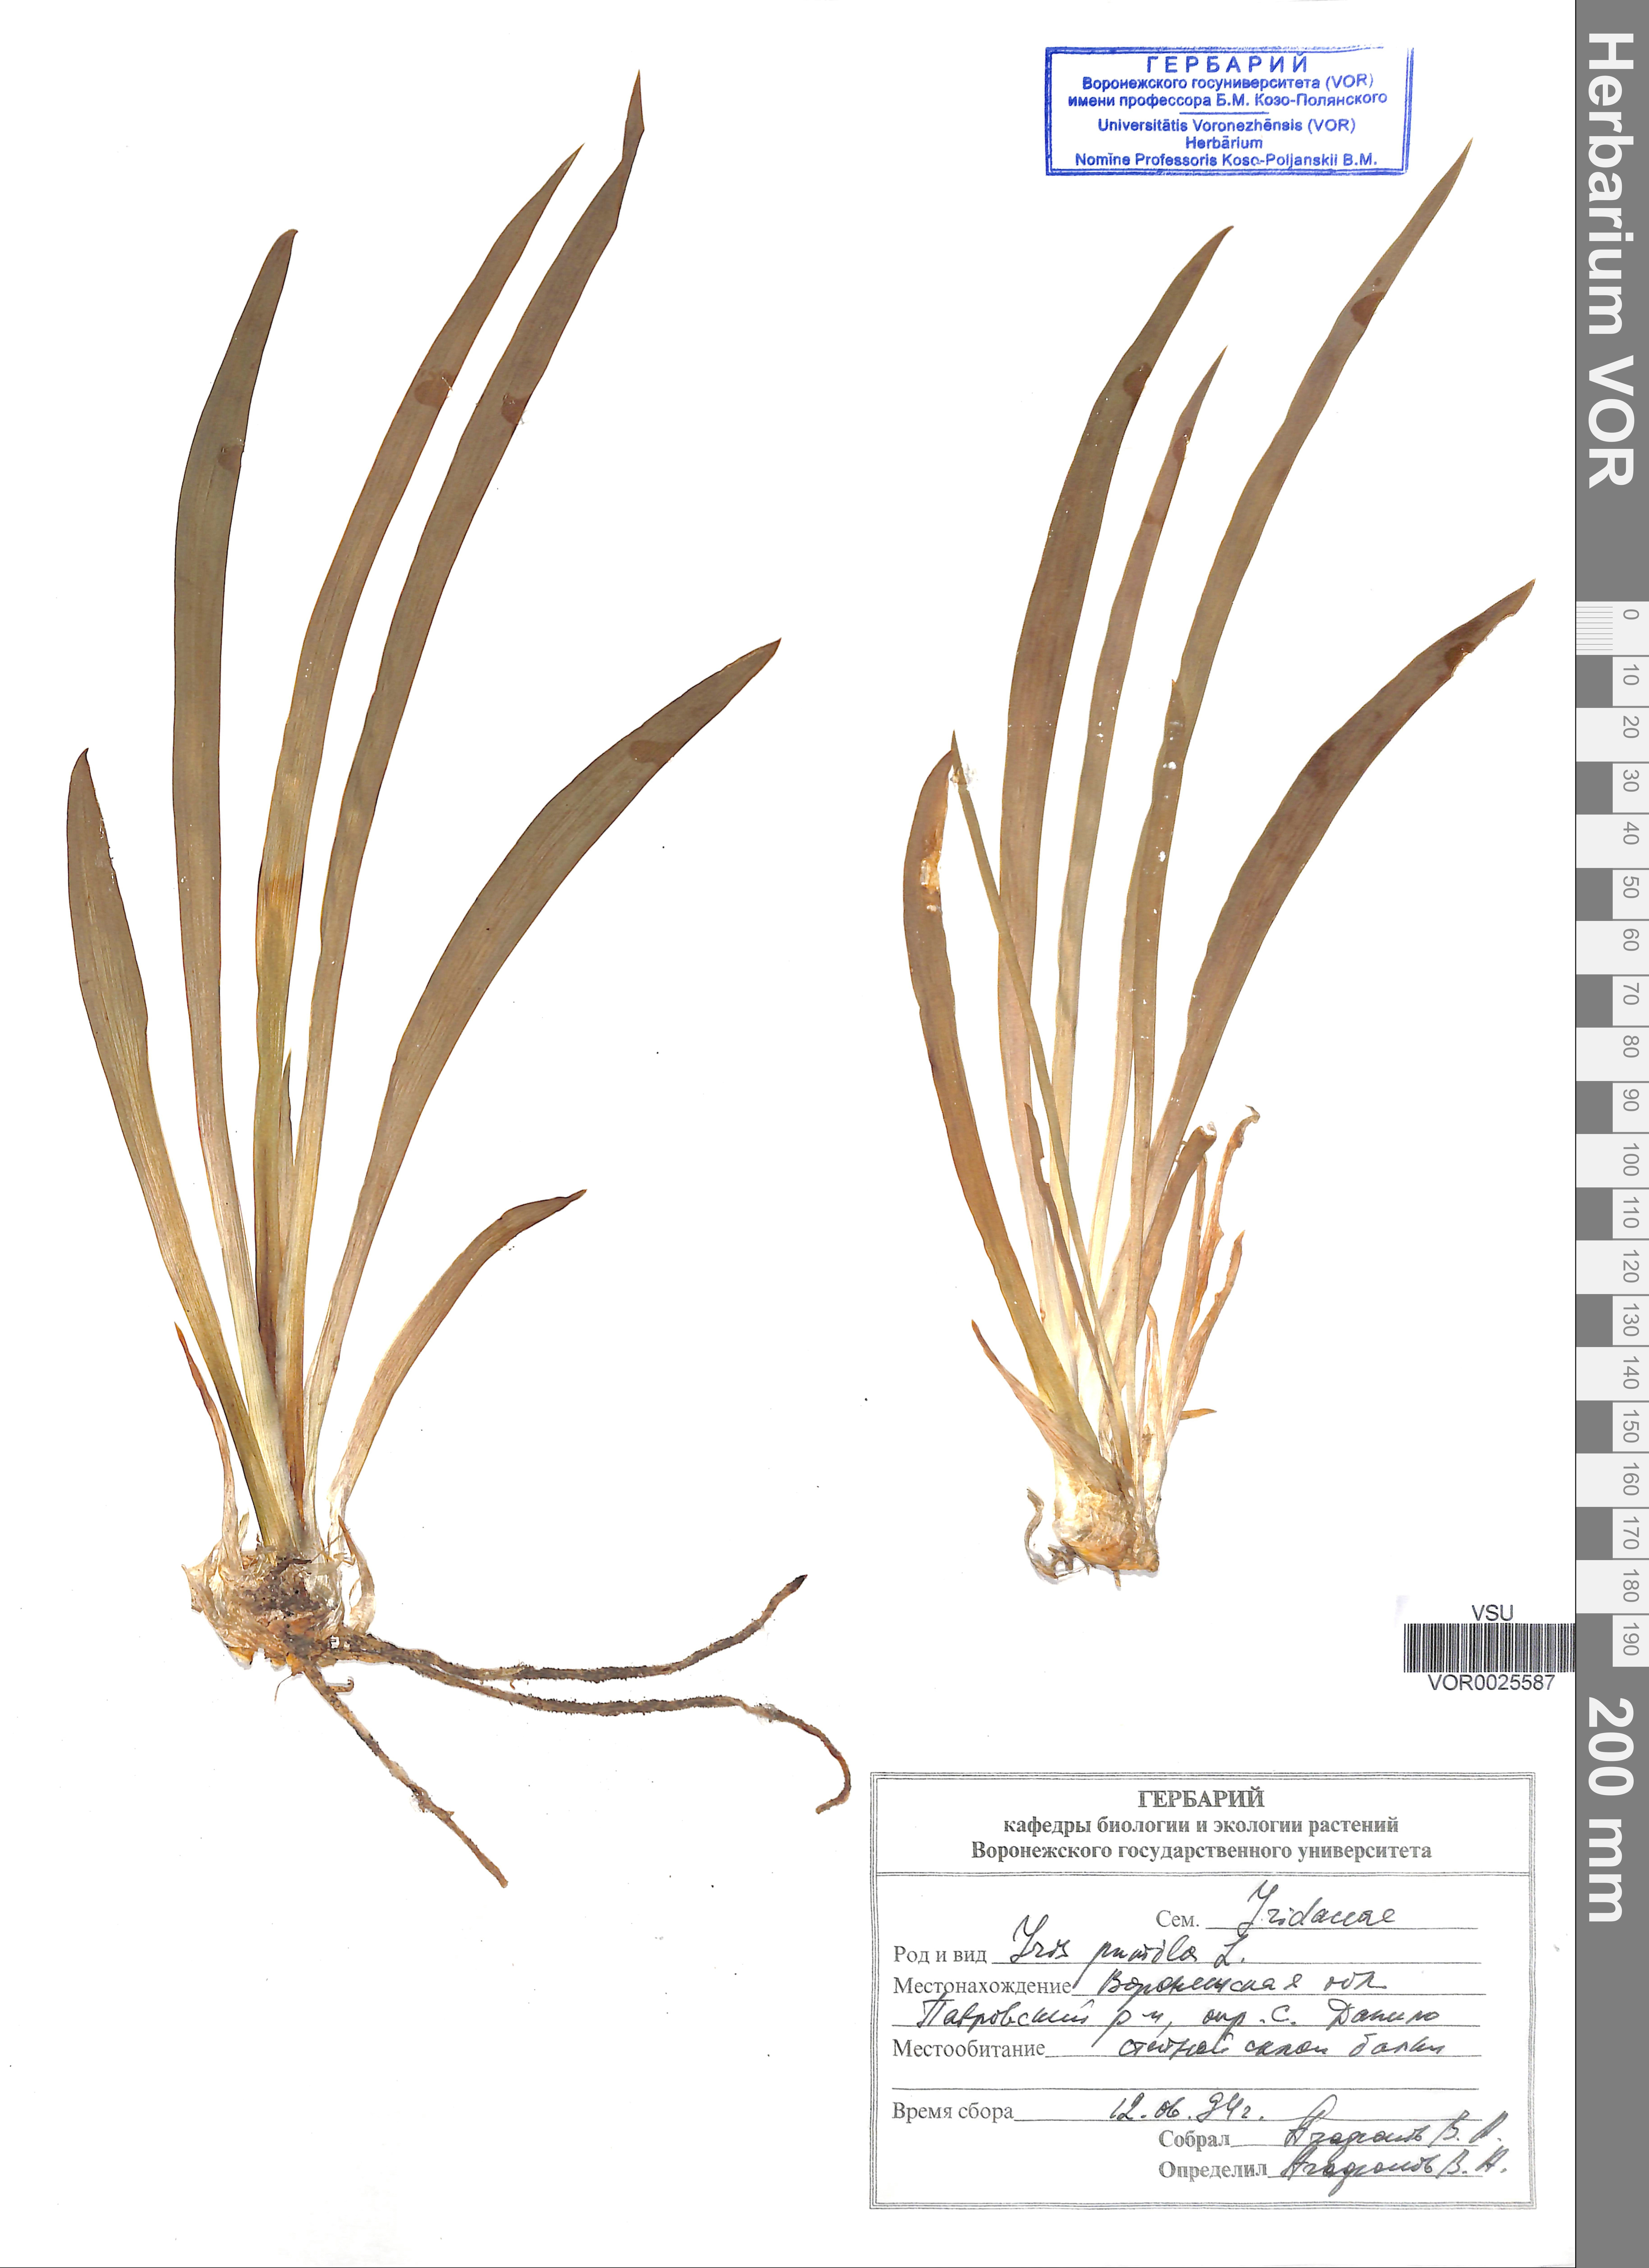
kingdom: Plantae
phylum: Tracheophyta
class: Liliopsida
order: Asparagales
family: Iridaceae
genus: Iris
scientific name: Iris pumila
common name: Dwarf iris
